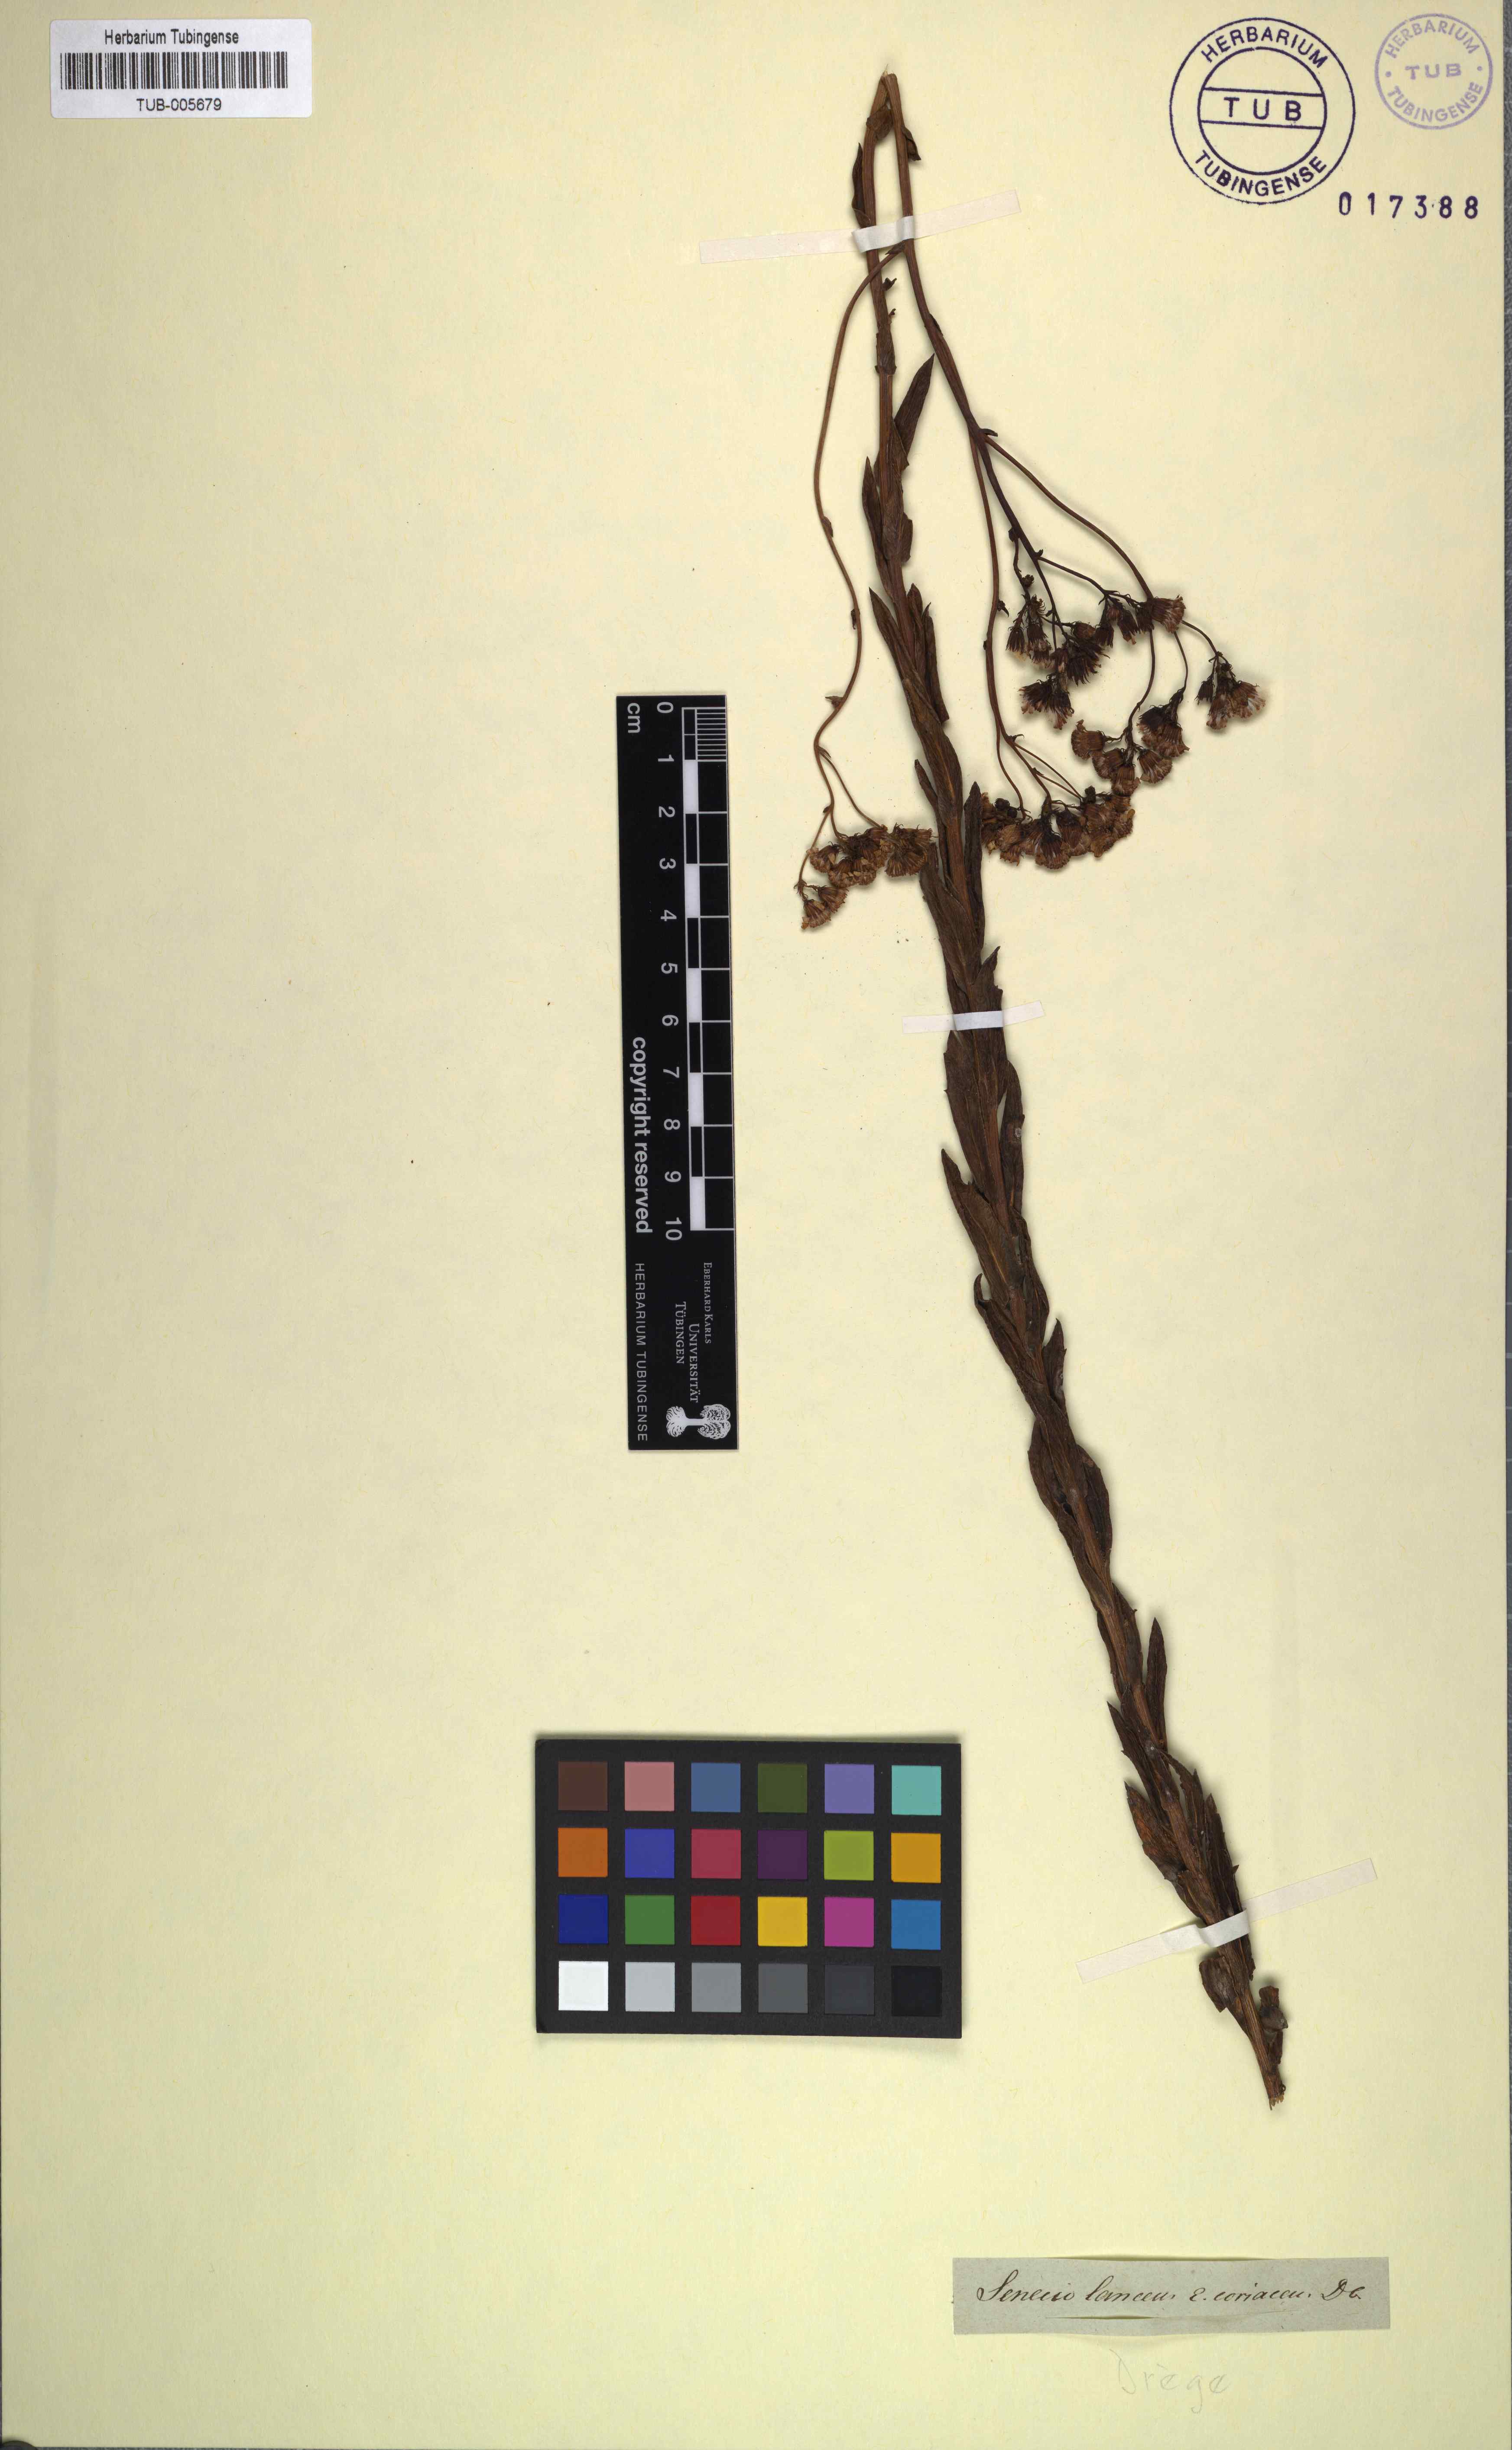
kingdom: Plantae
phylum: Tracheophyta
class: Magnoliopsida
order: Asterales
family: Asteraceae
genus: Senecio
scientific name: Senecio lanceus
